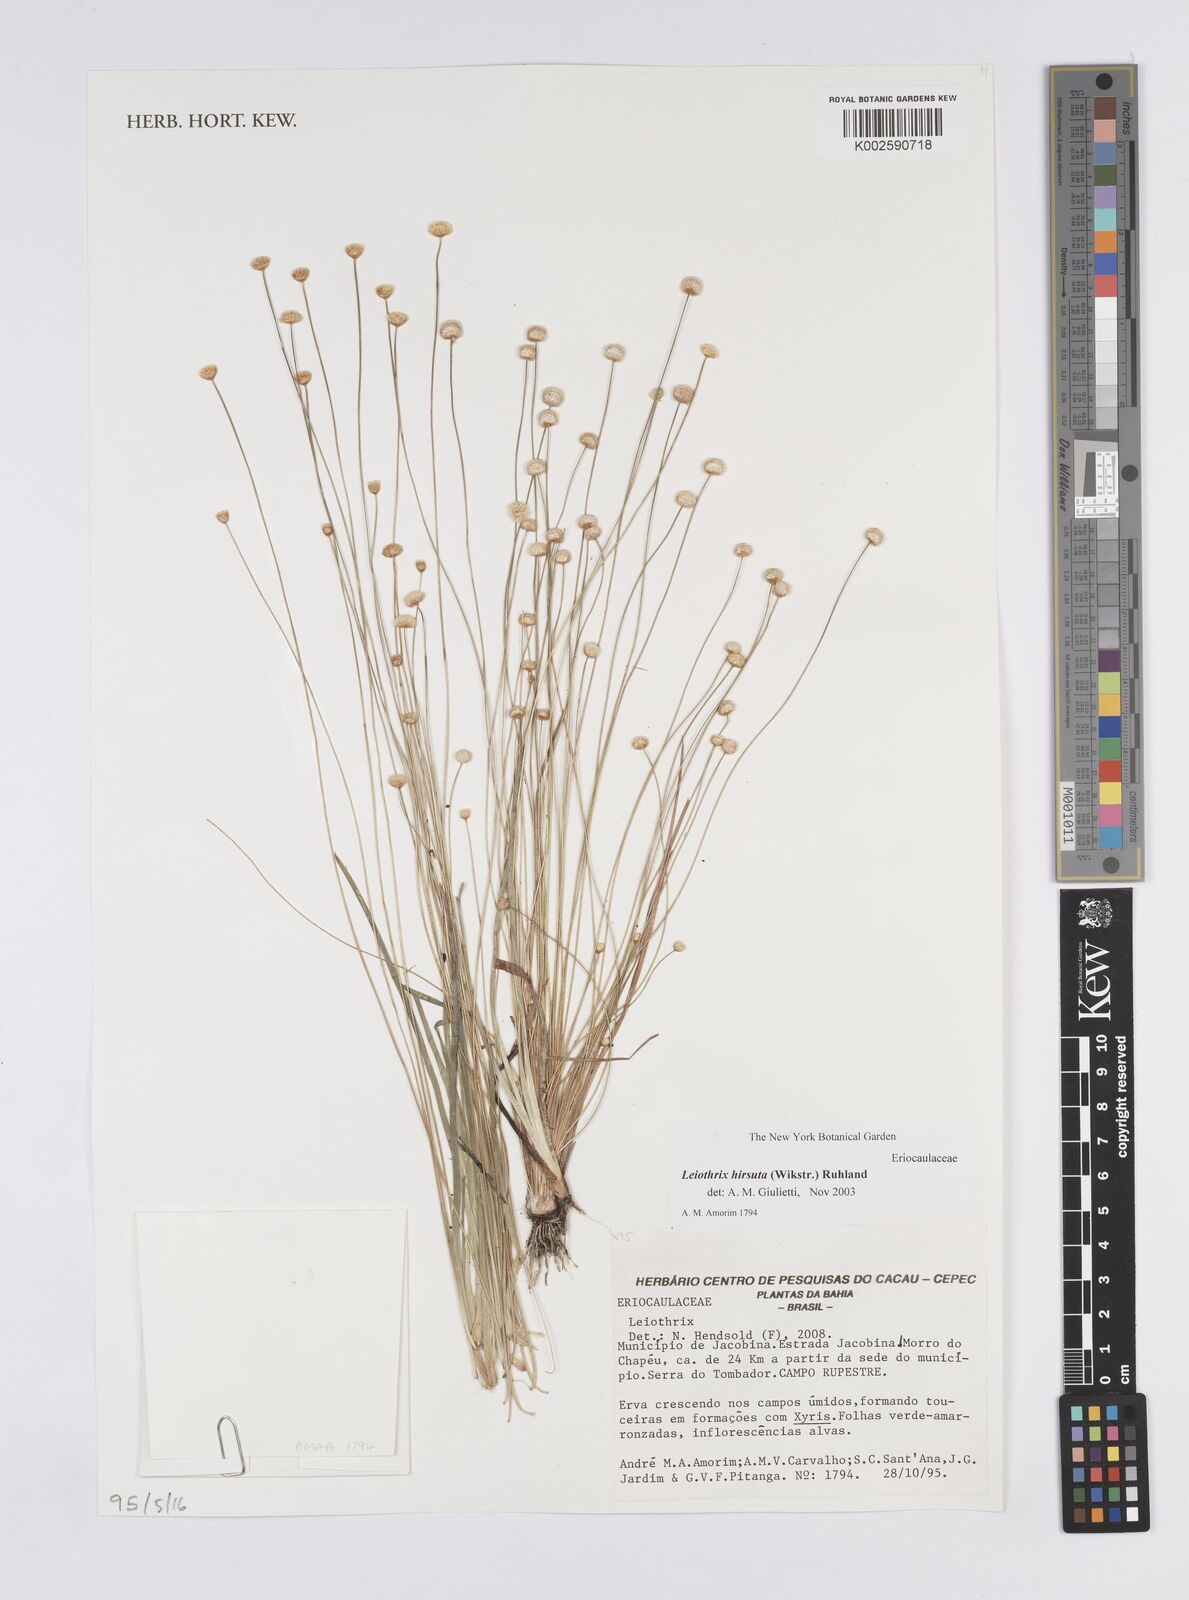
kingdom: Plantae
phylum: Tracheophyta
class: Liliopsida
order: Poales
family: Eriocaulaceae
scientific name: Eriocaulaceae
